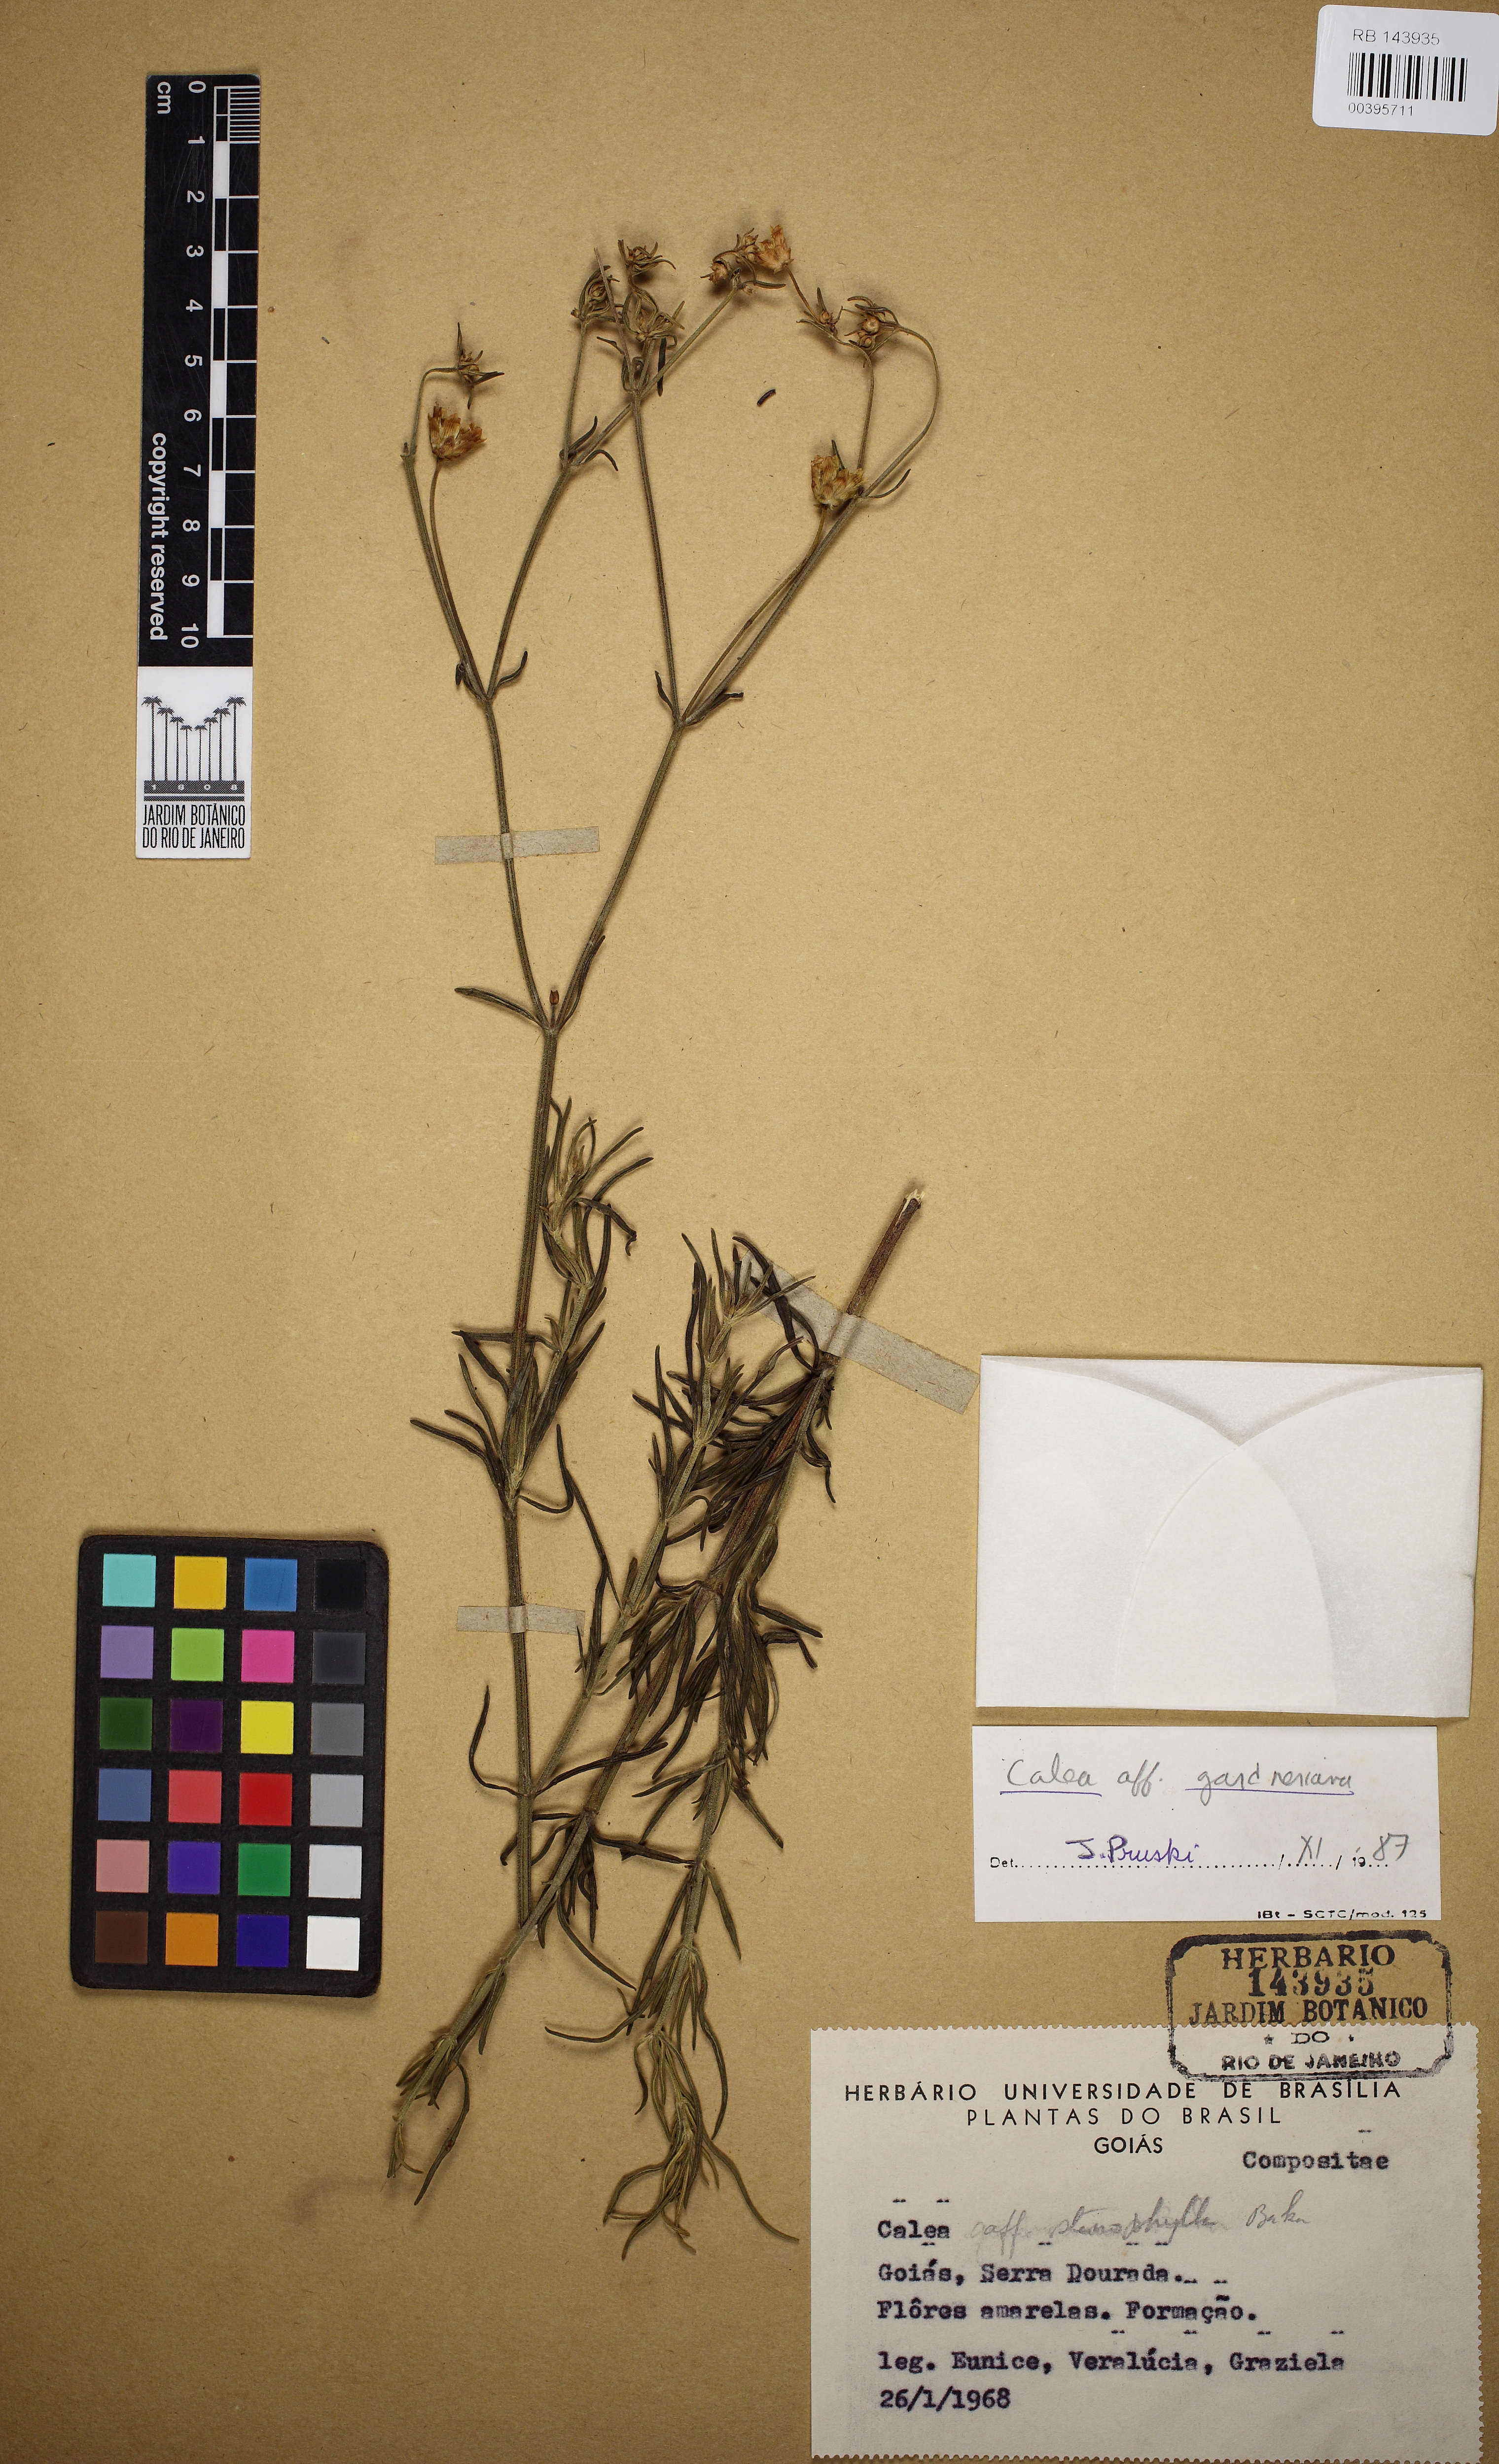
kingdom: Plantae
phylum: Tracheophyta
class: Magnoliopsida
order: Asterales
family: Asteraceae
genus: Calea
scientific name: Calea gardneriana
